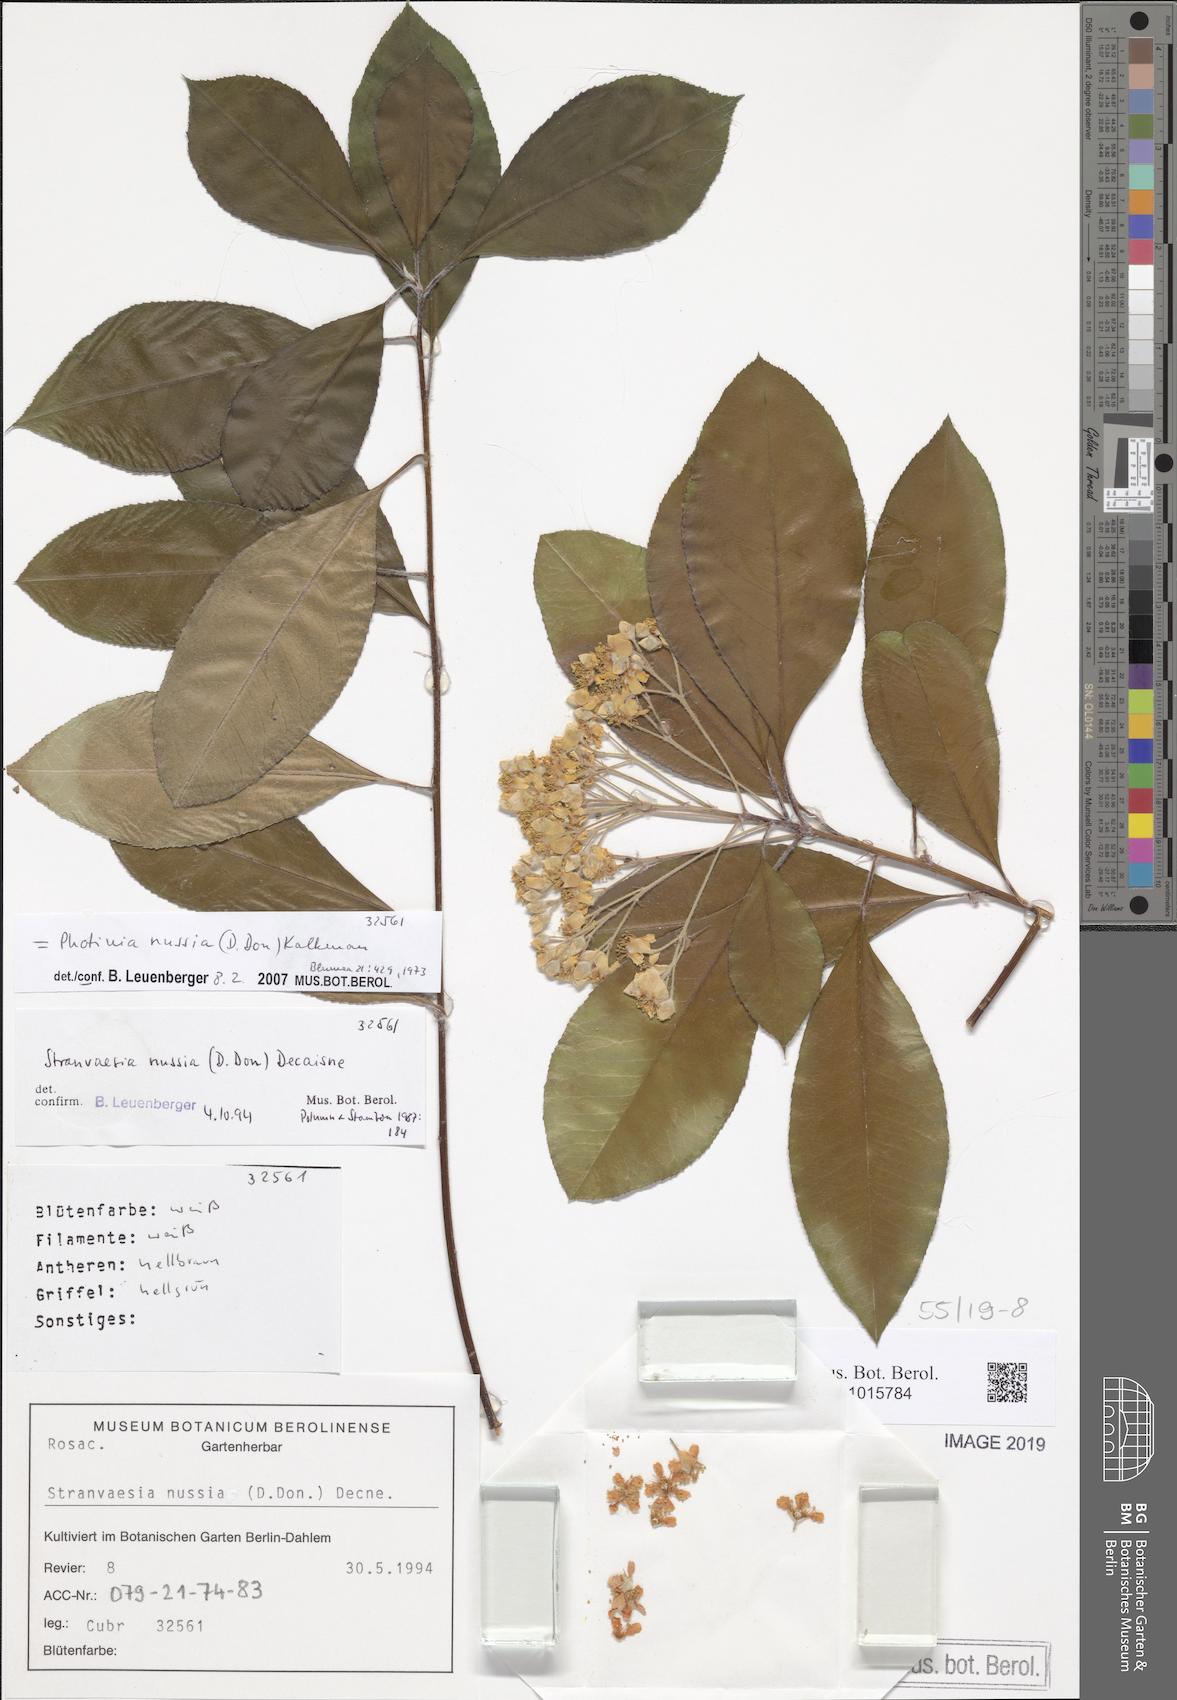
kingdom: Plantae
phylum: Tracheophyta
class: Magnoliopsida
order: Rosales
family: Rosaceae
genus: Stranvaesia
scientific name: Stranvaesia nussia
